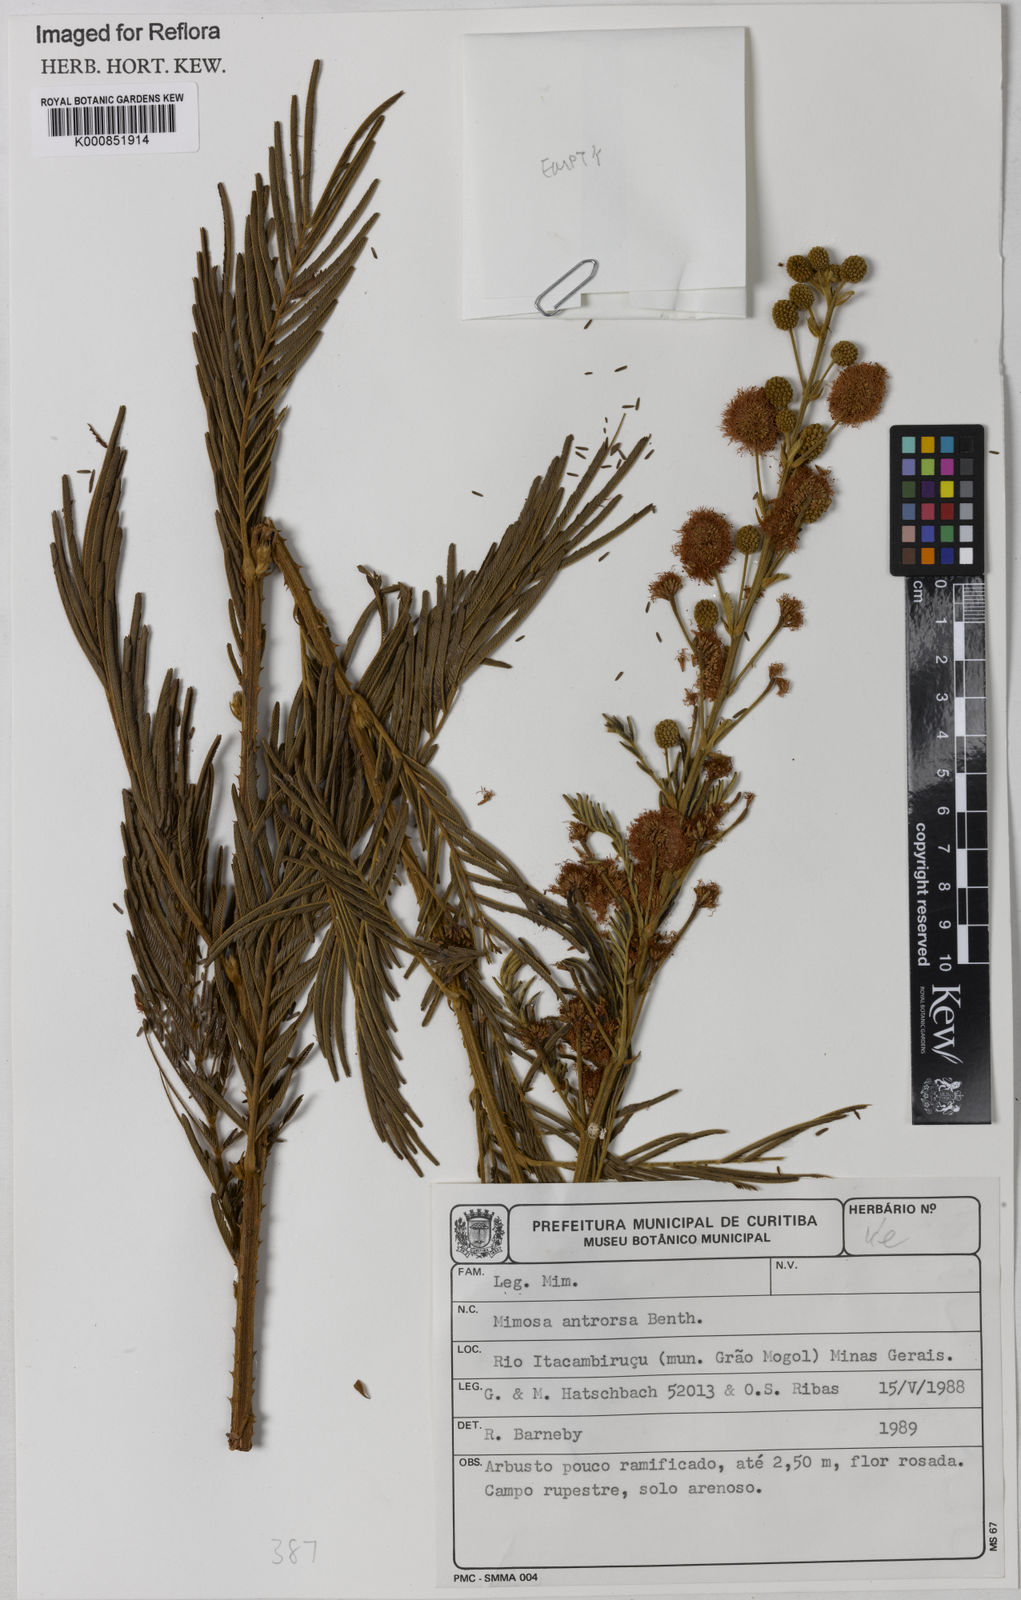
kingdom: Plantae
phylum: Tracheophyta
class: Magnoliopsida
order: Fabales
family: Fabaceae
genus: Mimosa
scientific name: Mimosa antrorsa
